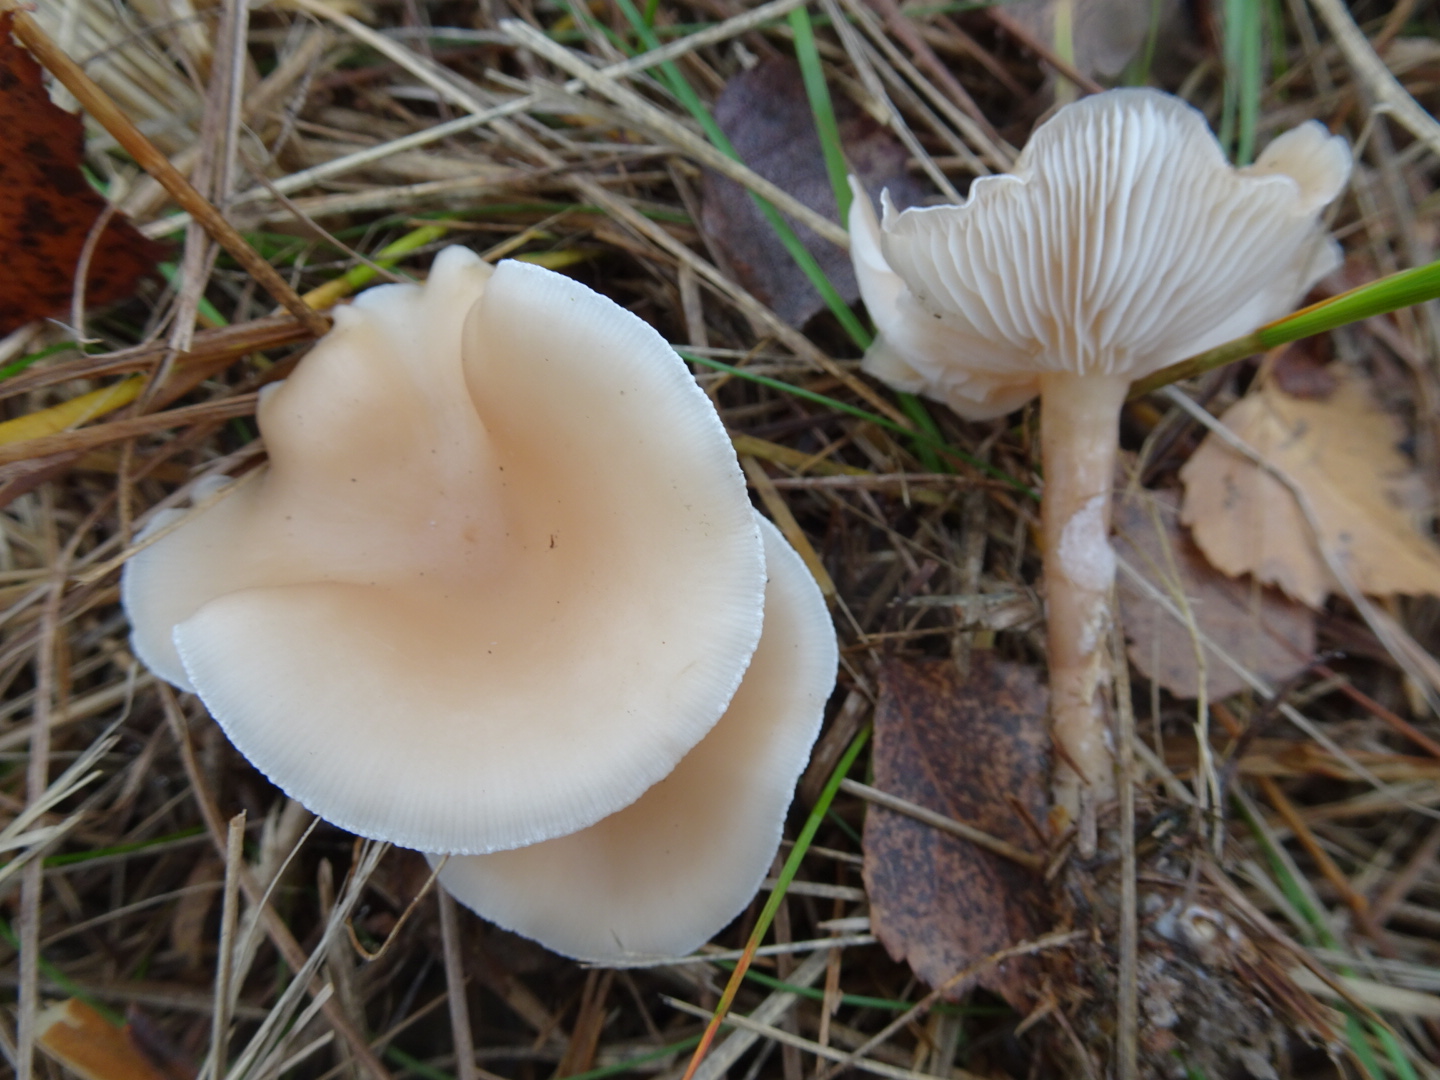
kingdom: Fungi
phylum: Basidiomycota
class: Agaricomycetes
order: Agaricales
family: Tricholomataceae
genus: Clitocybe
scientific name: Clitocybe
